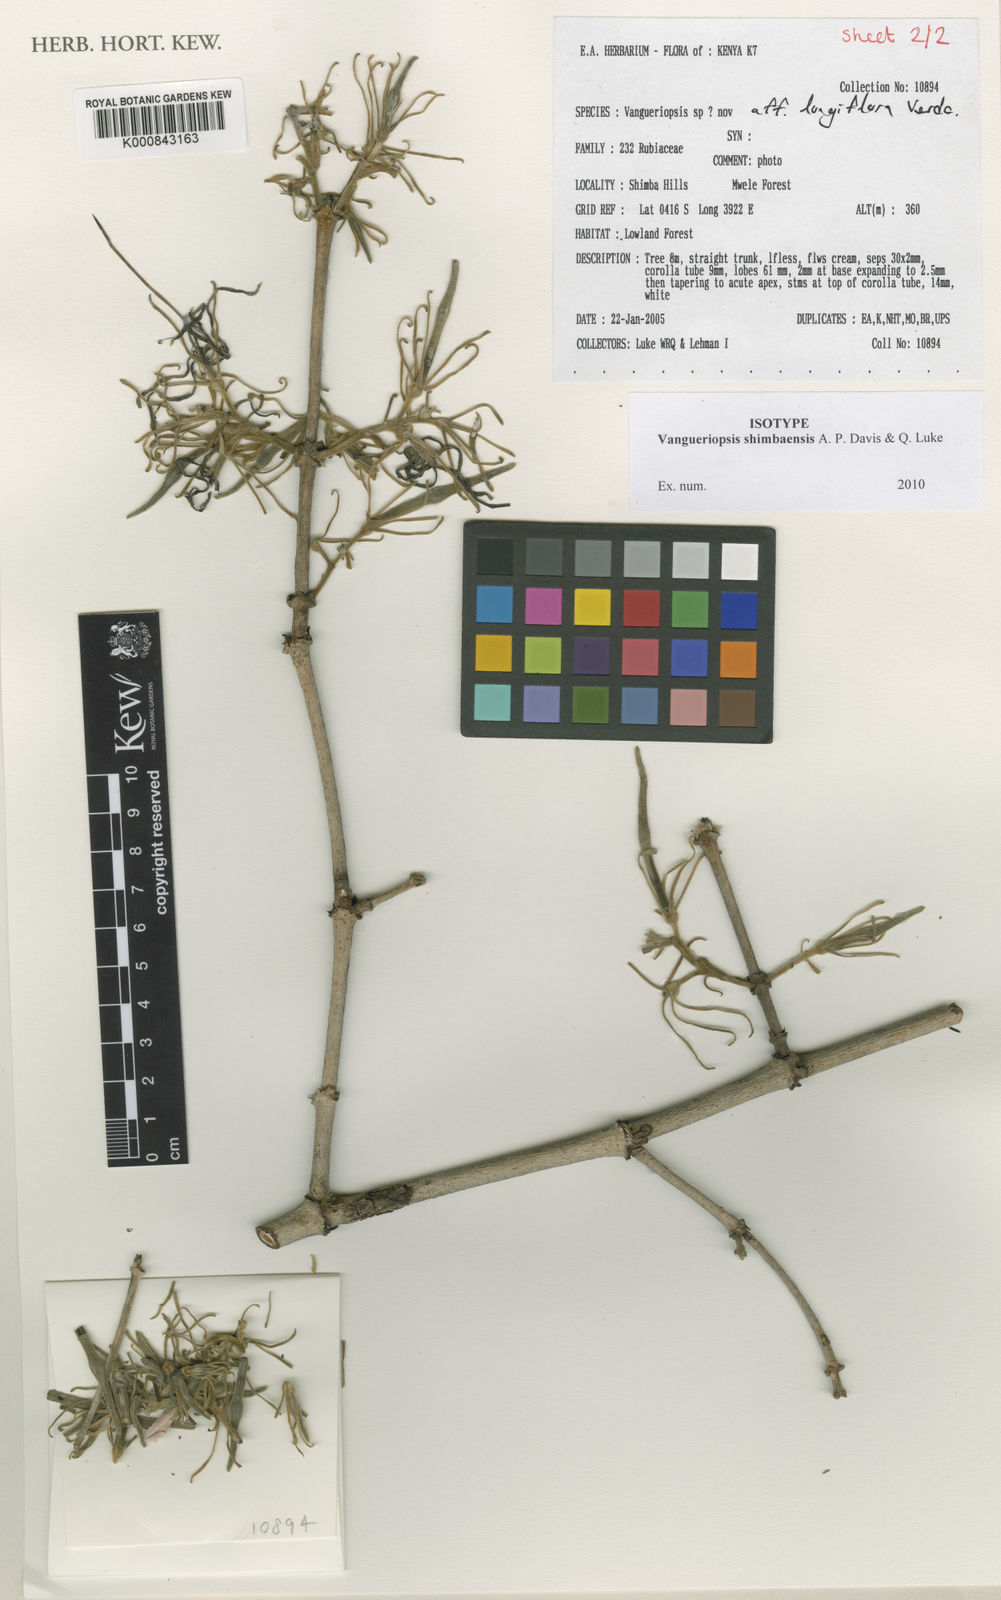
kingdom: Plantae
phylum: Tracheophyta
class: Magnoliopsida
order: Gentianales
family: Rubiaceae
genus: Vangueriopsis
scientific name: Vangueriopsis shimbaensis
